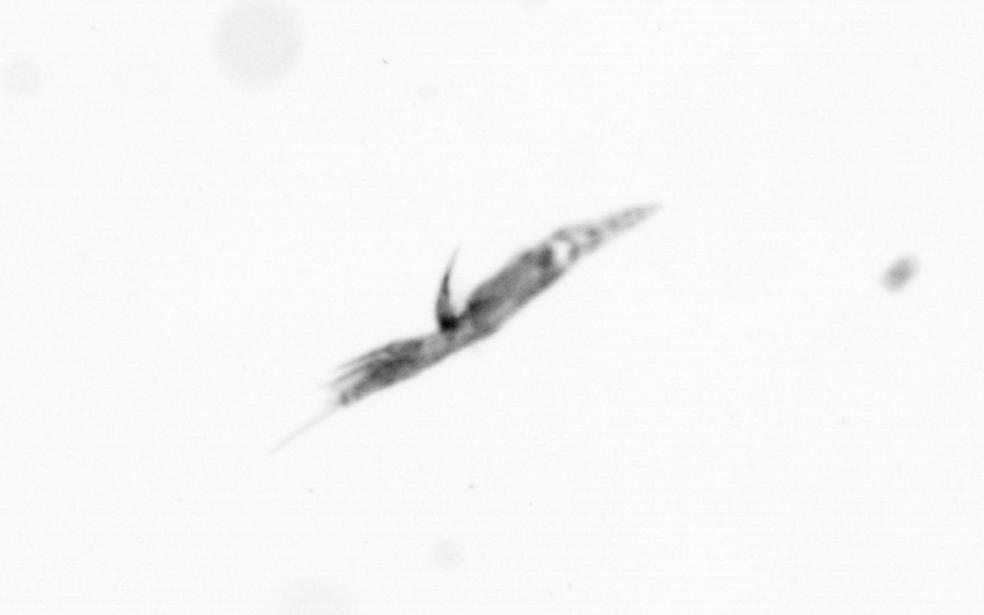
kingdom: Animalia
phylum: Arthropoda
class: Copepoda
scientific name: Copepoda
